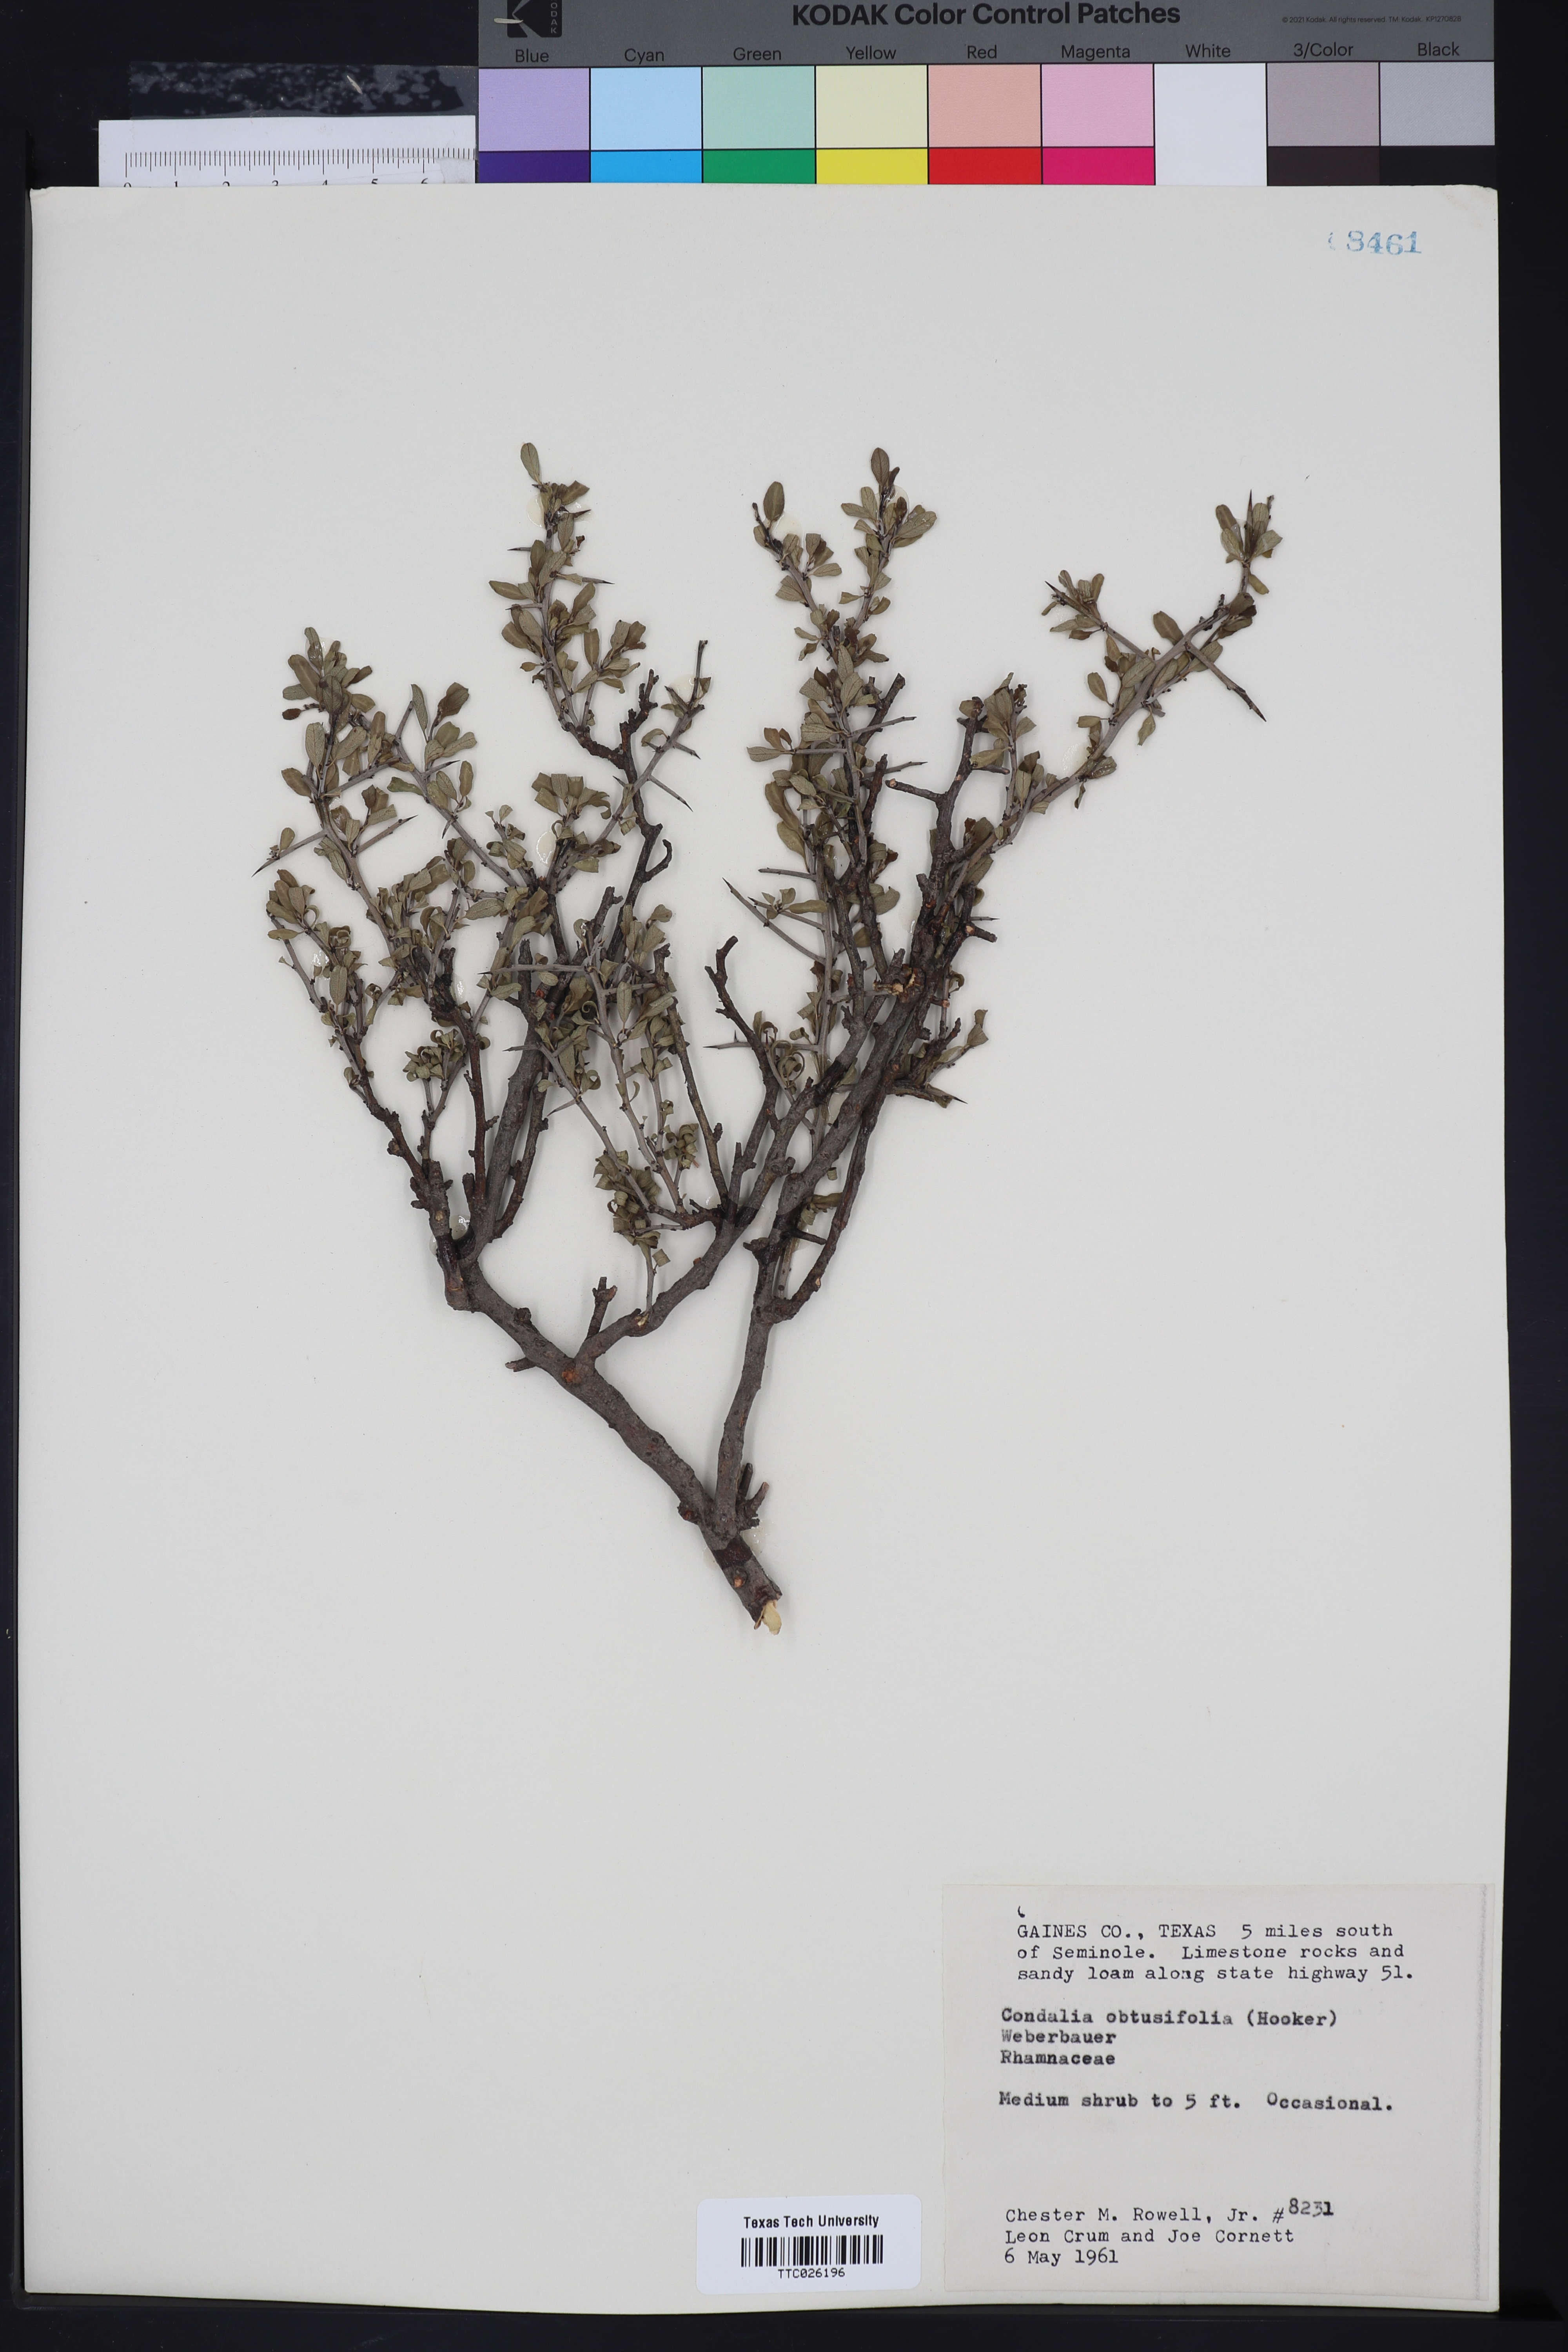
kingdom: Plantae
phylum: Tracheophyta
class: Magnoliopsida
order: Rosales
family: Rhamnaceae
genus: Sarcomphalus
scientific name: Sarcomphalus obtusifolius
